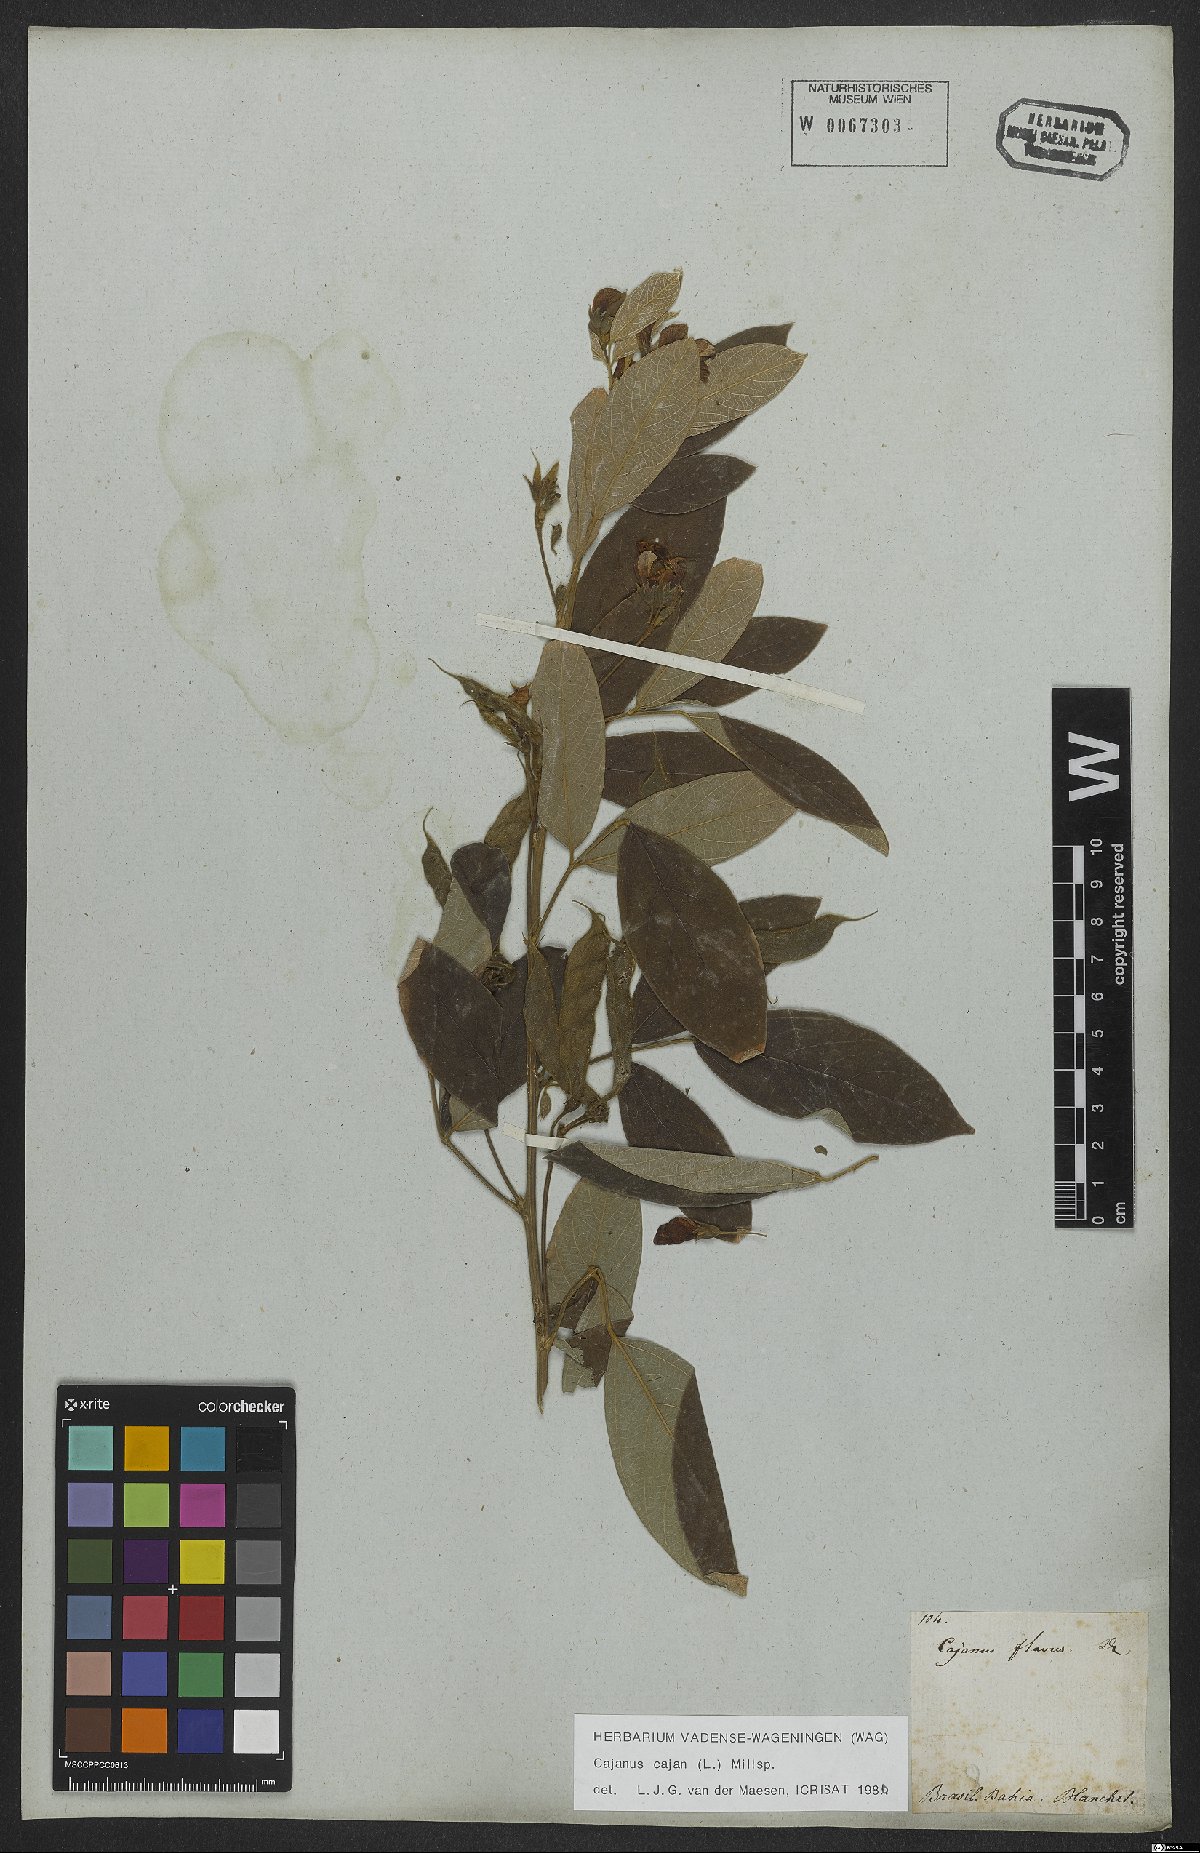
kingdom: Plantae
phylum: Tracheophyta
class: Magnoliopsida
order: Fabales
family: Fabaceae
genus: Cajanus
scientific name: Cajanus cajan
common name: Pigeonpea
